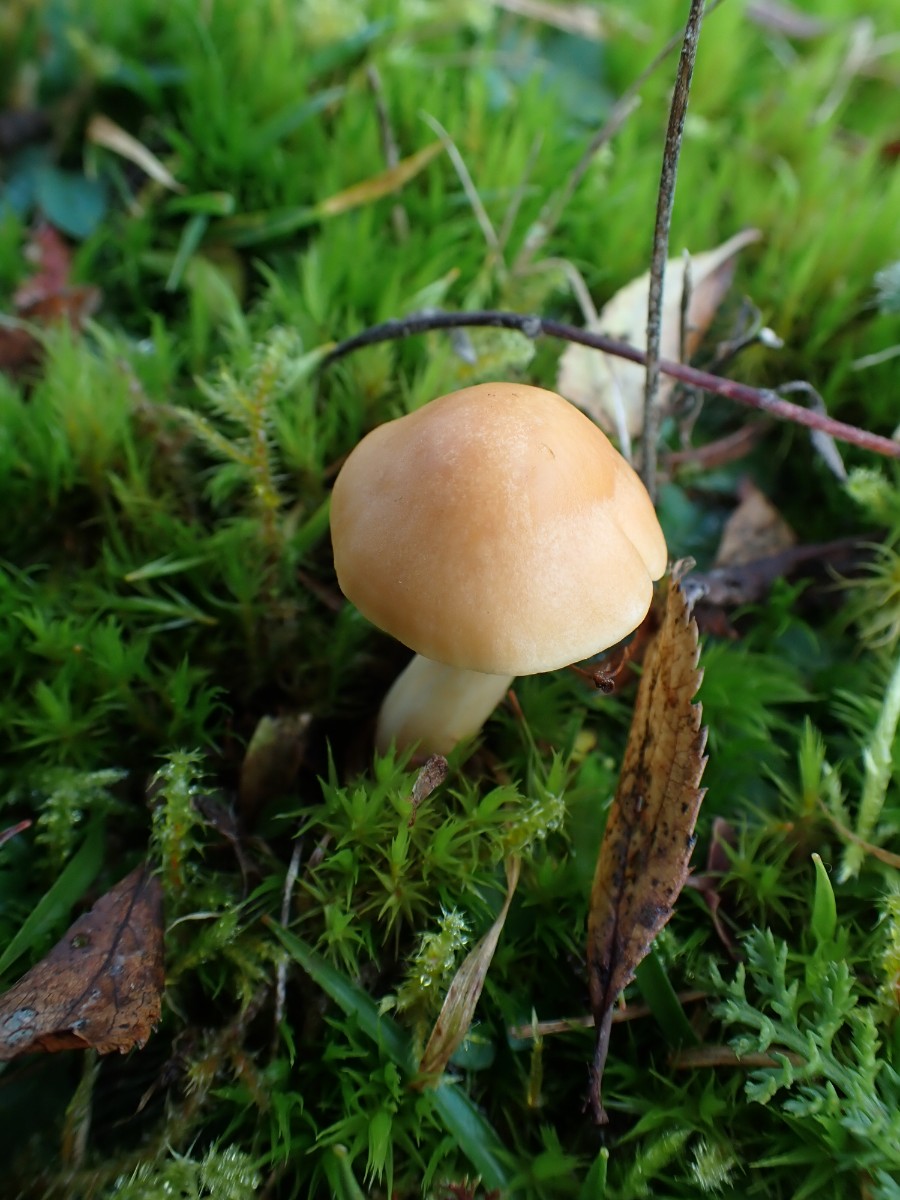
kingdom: Fungi
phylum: Basidiomycota
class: Agaricomycetes
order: Agaricales
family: Hygrophoraceae
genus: Cuphophyllus
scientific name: Cuphophyllus pratensis
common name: eng-vokshat
